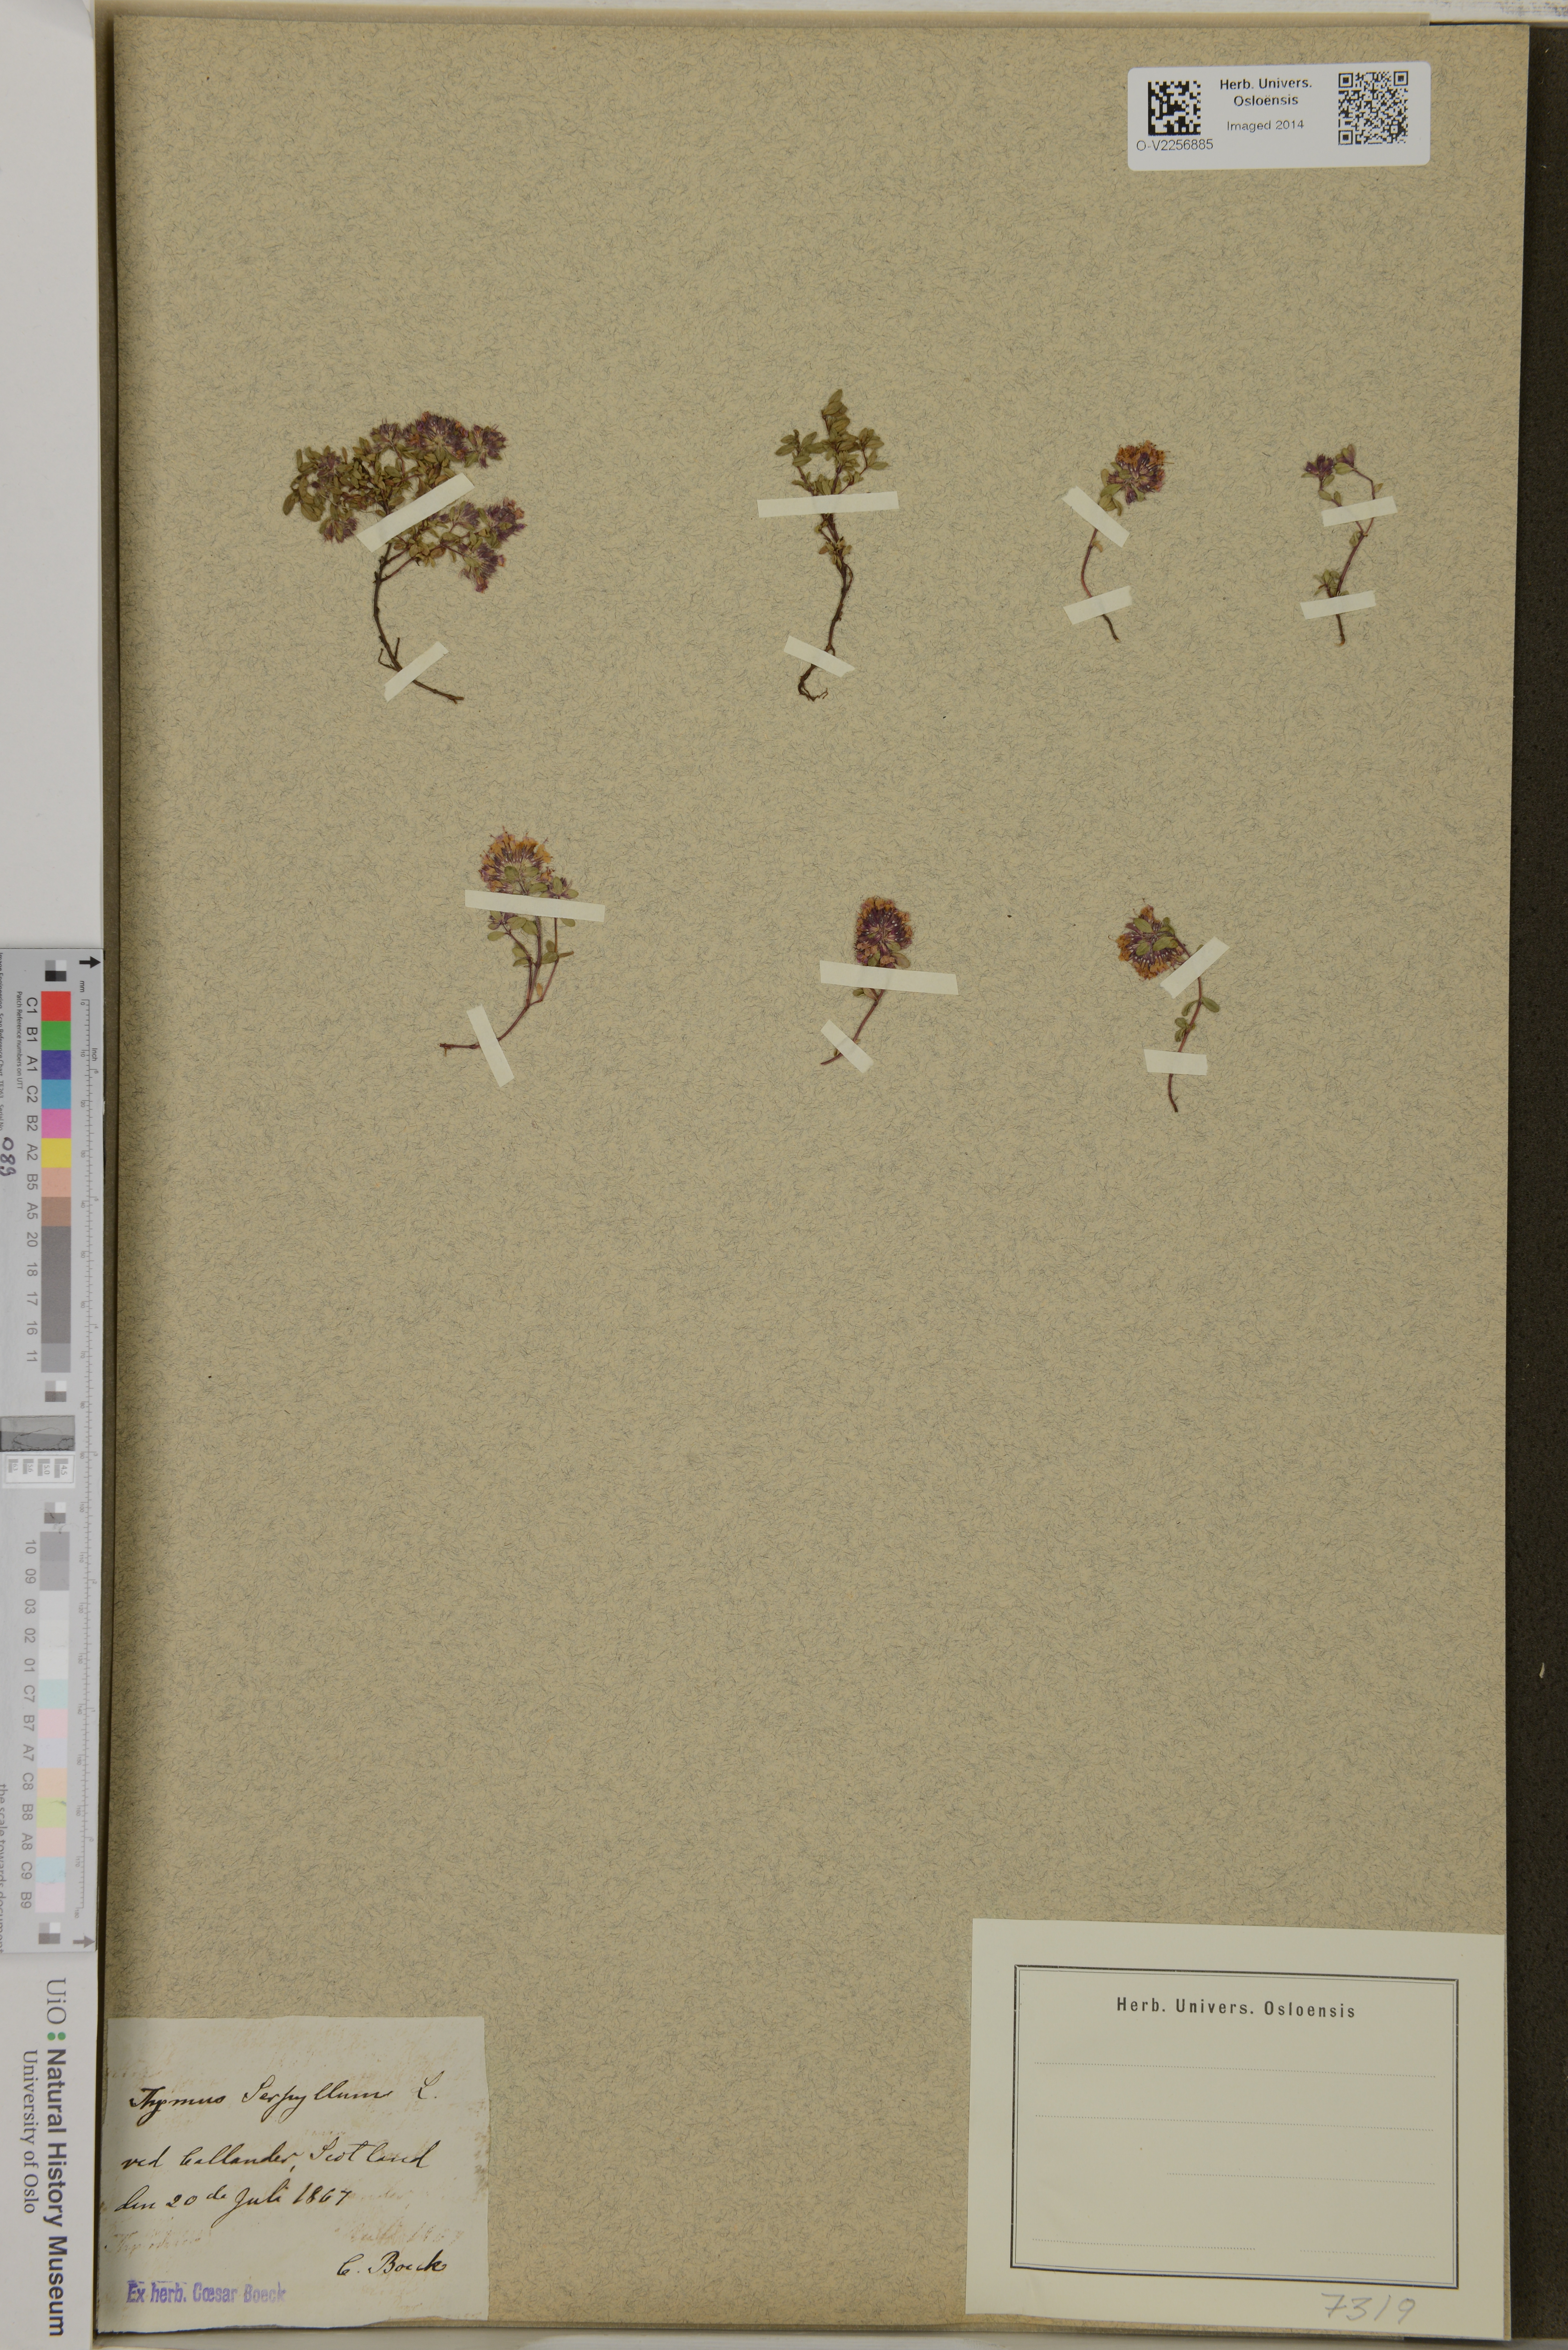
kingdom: Plantae
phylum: Tracheophyta
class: Magnoliopsida
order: Lamiales
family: Lamiaceae
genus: Thymus
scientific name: Thymus serpyllum
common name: Breckland thyme
